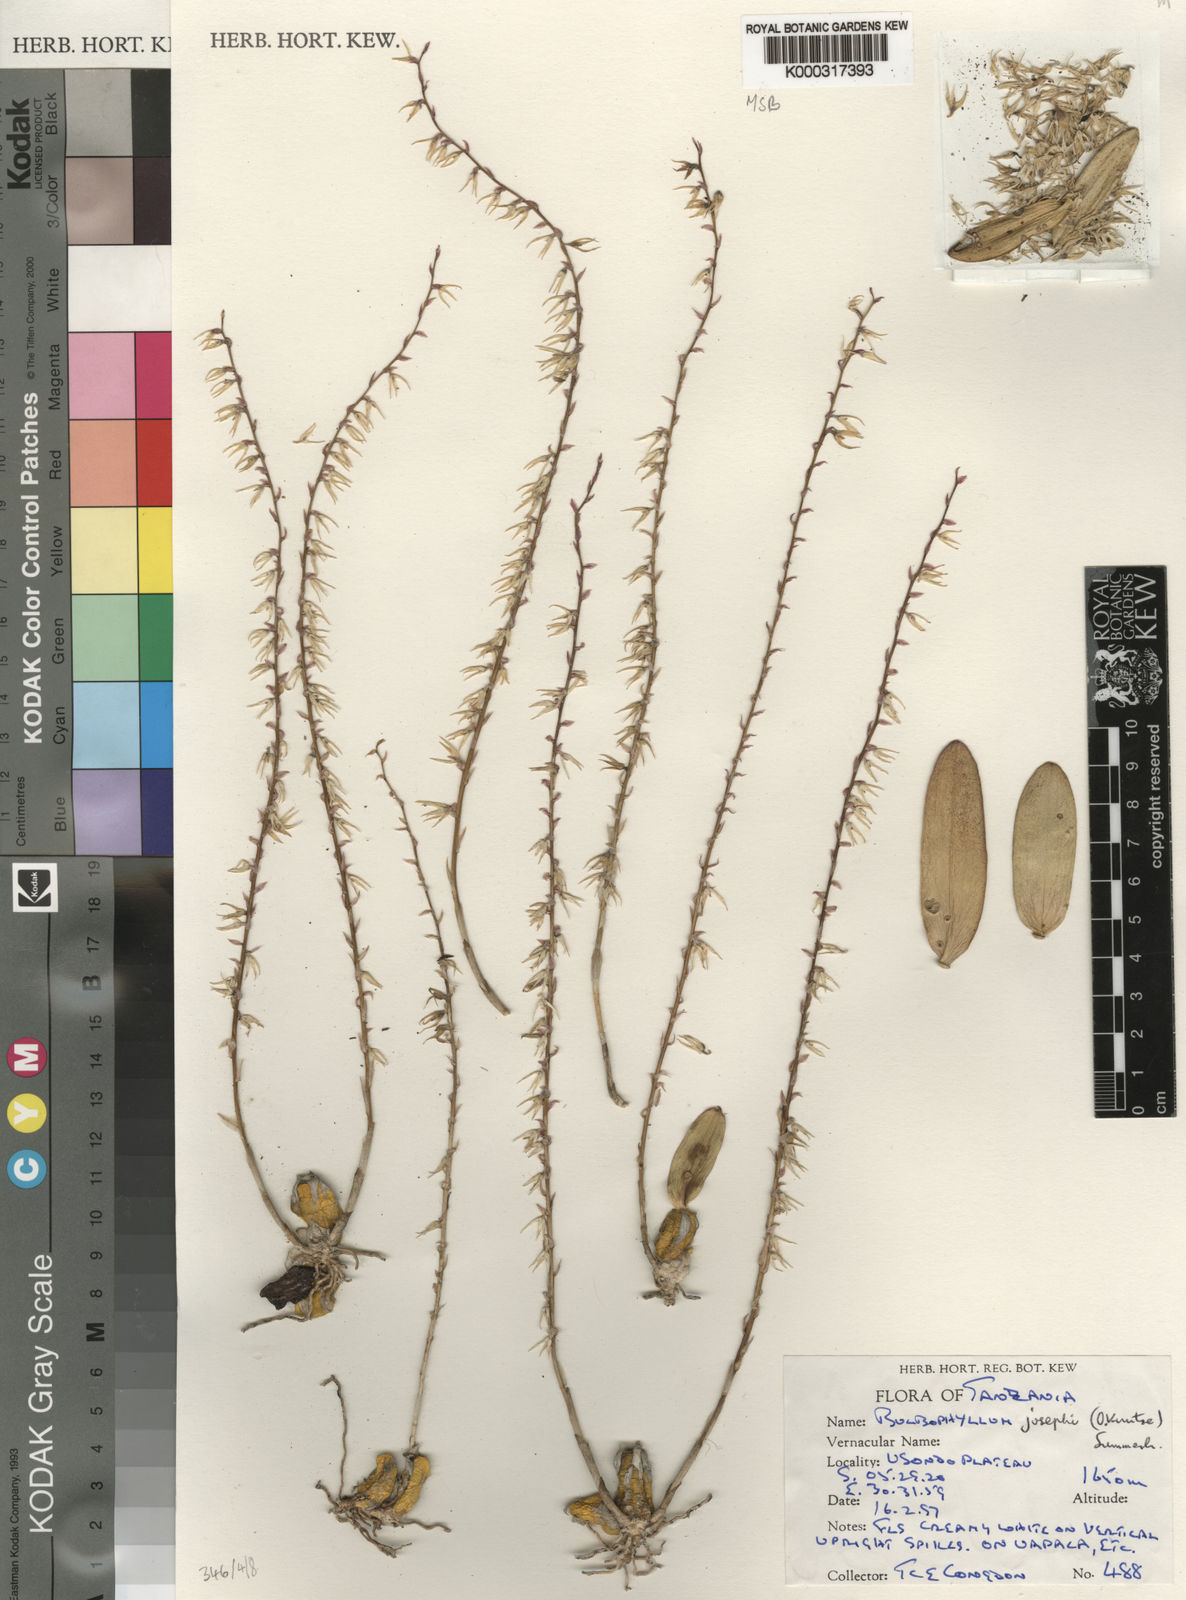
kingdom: Plantae
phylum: Tracheophyta
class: Liliopsida
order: Asparagales
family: Orchidaceae
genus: Bulbophyllum
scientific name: Bulbophyllum josephi
